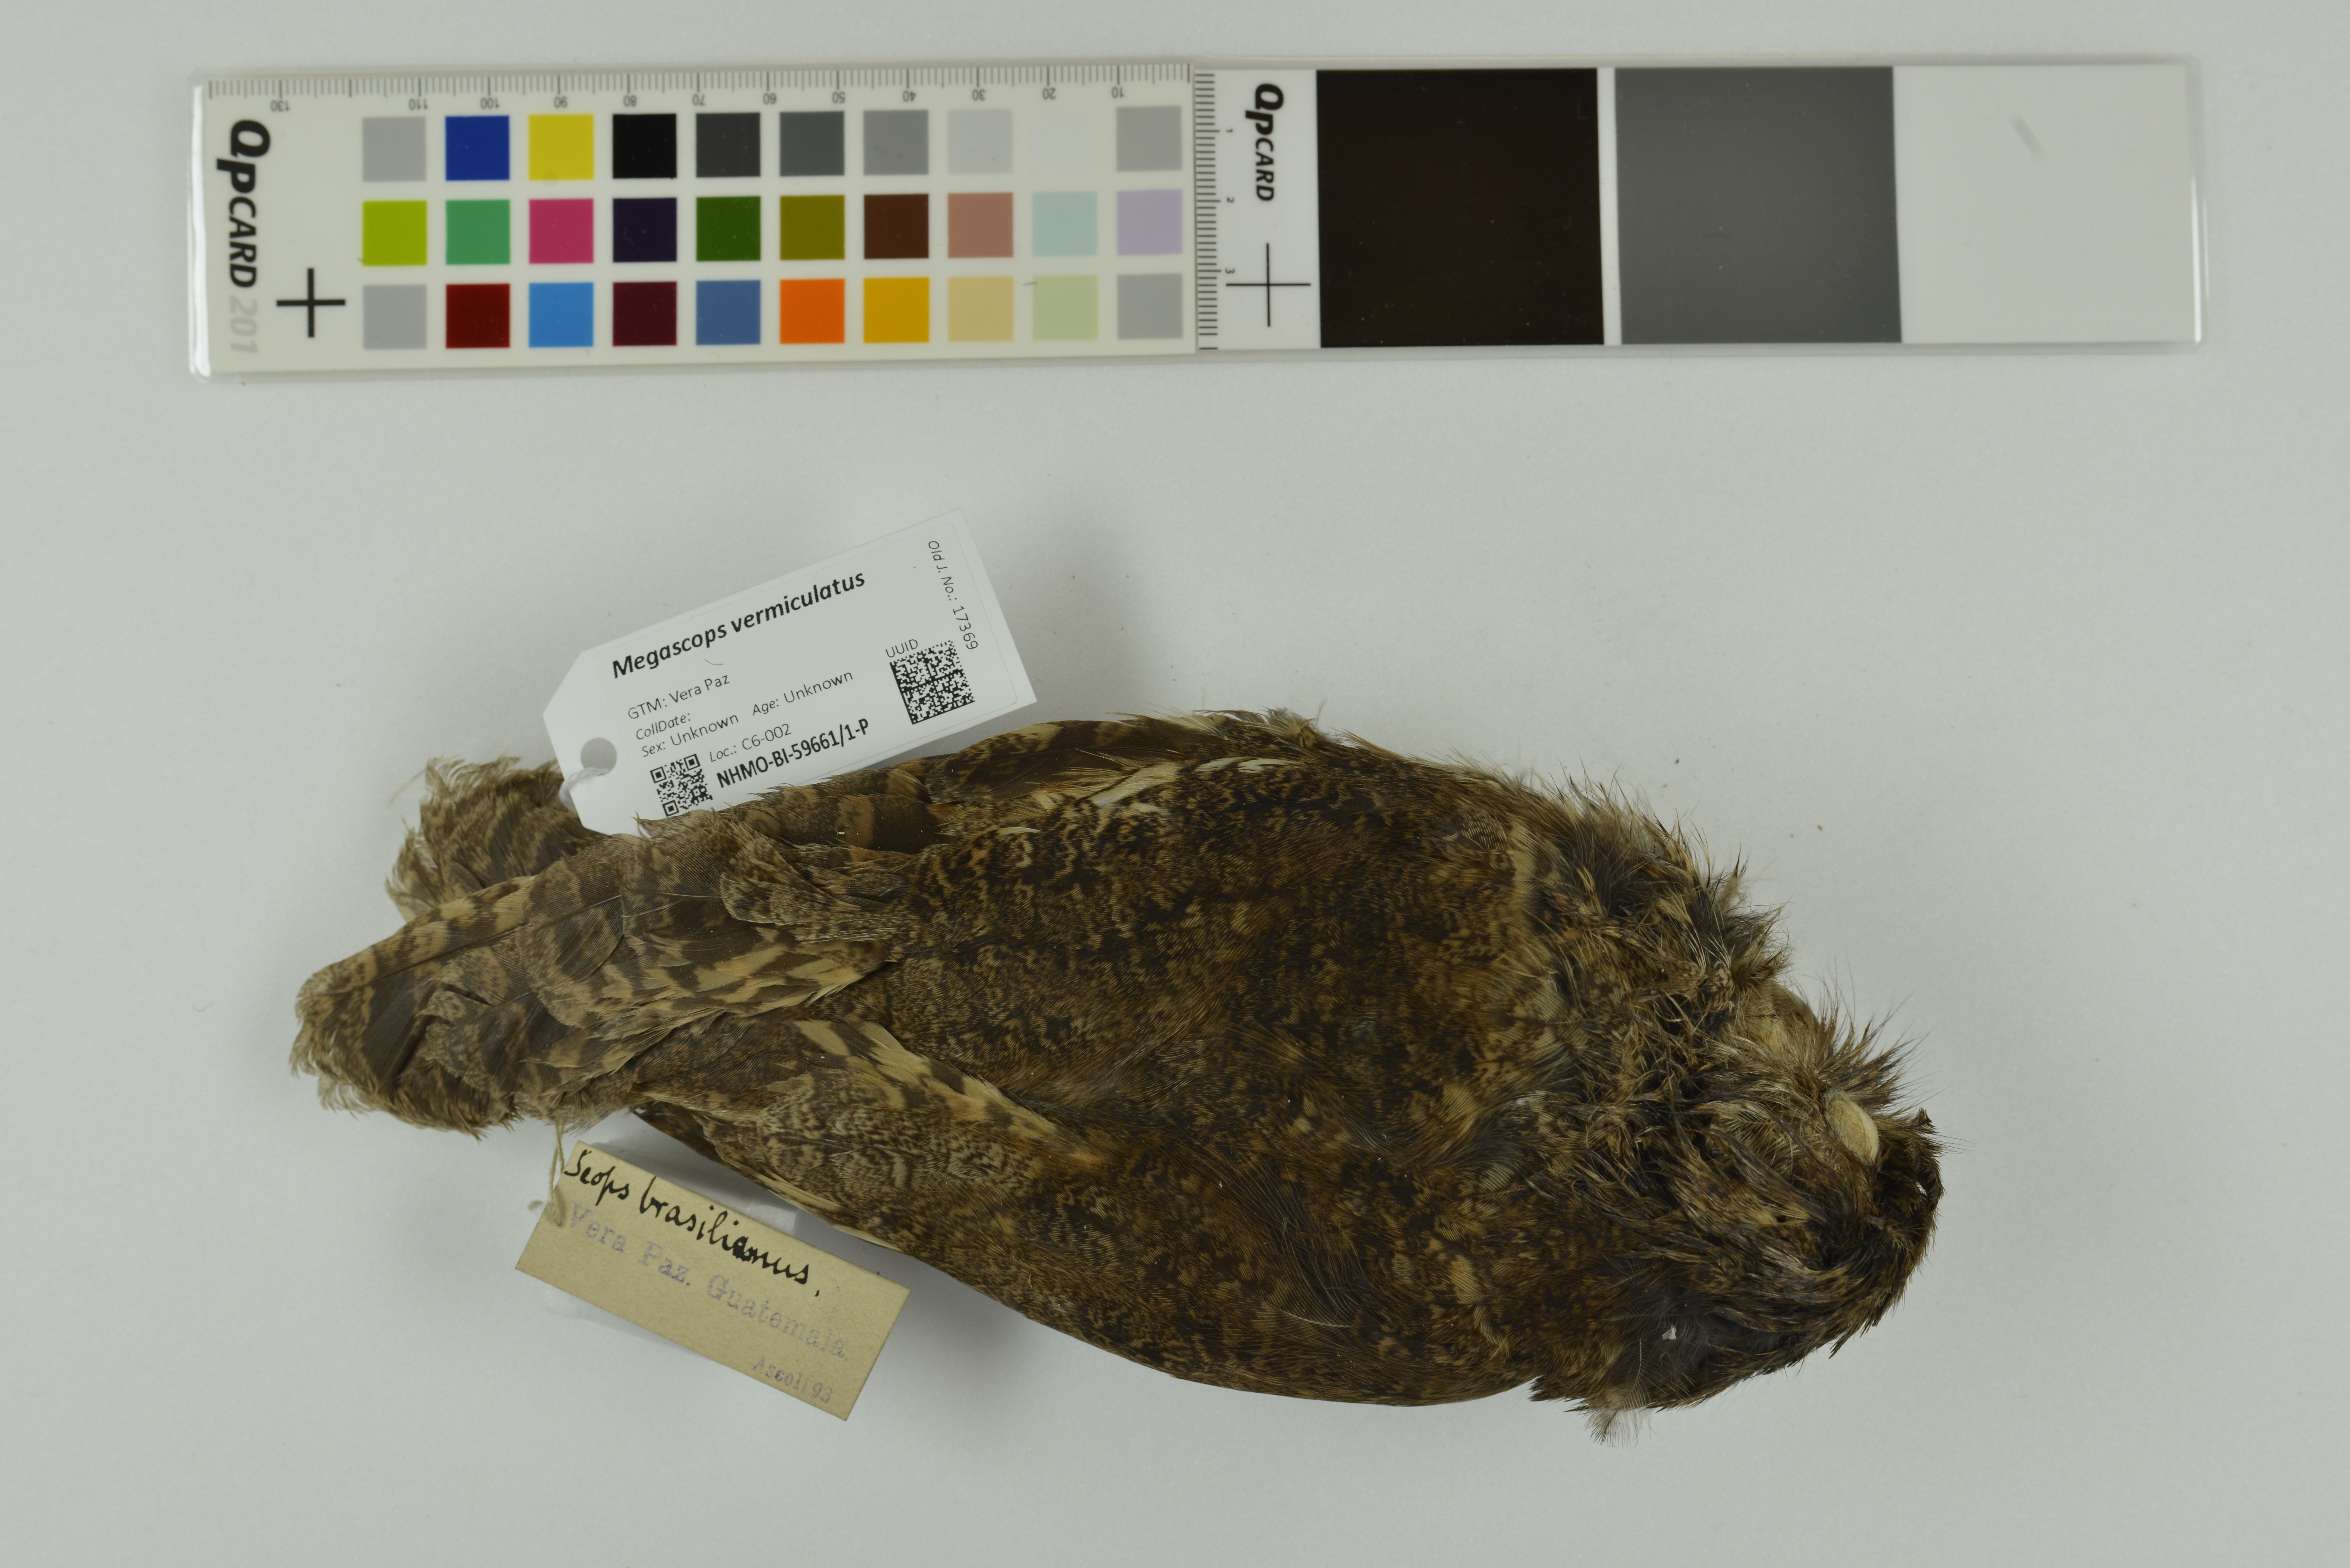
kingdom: Animalia
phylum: Chordata
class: Aves
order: Strigiformes
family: Strigidae
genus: Megascops
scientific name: Megascops vermiculatus
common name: Vermiculated screech owl
